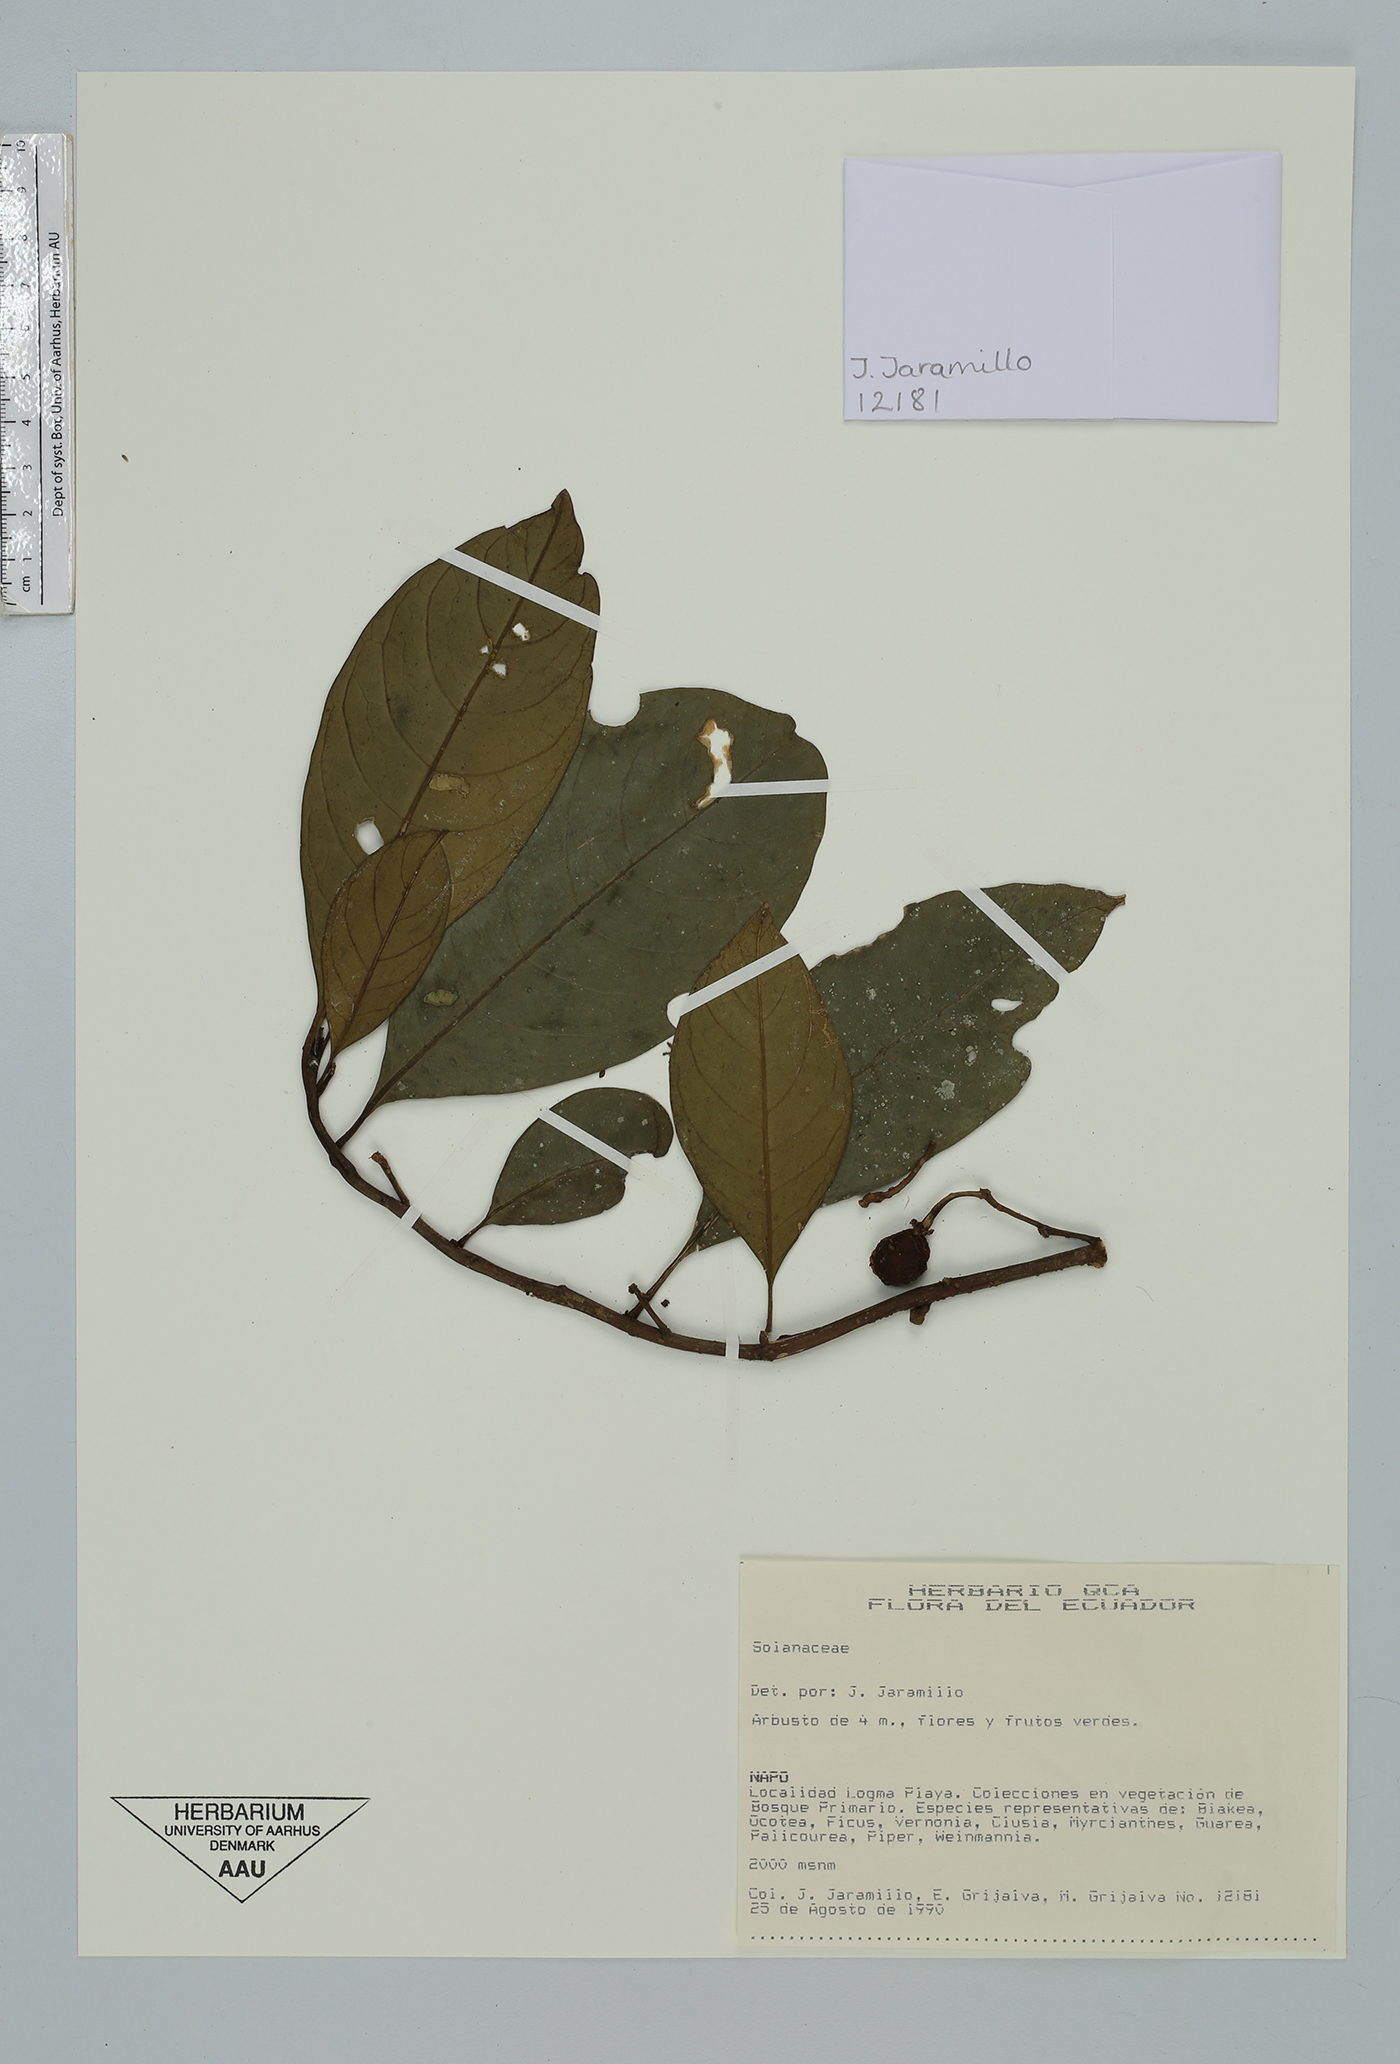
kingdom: Plantae
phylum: Tracheophyta
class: Magnoliopsida
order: Solanales
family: Solanaceae
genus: Solanum
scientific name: Solanum
